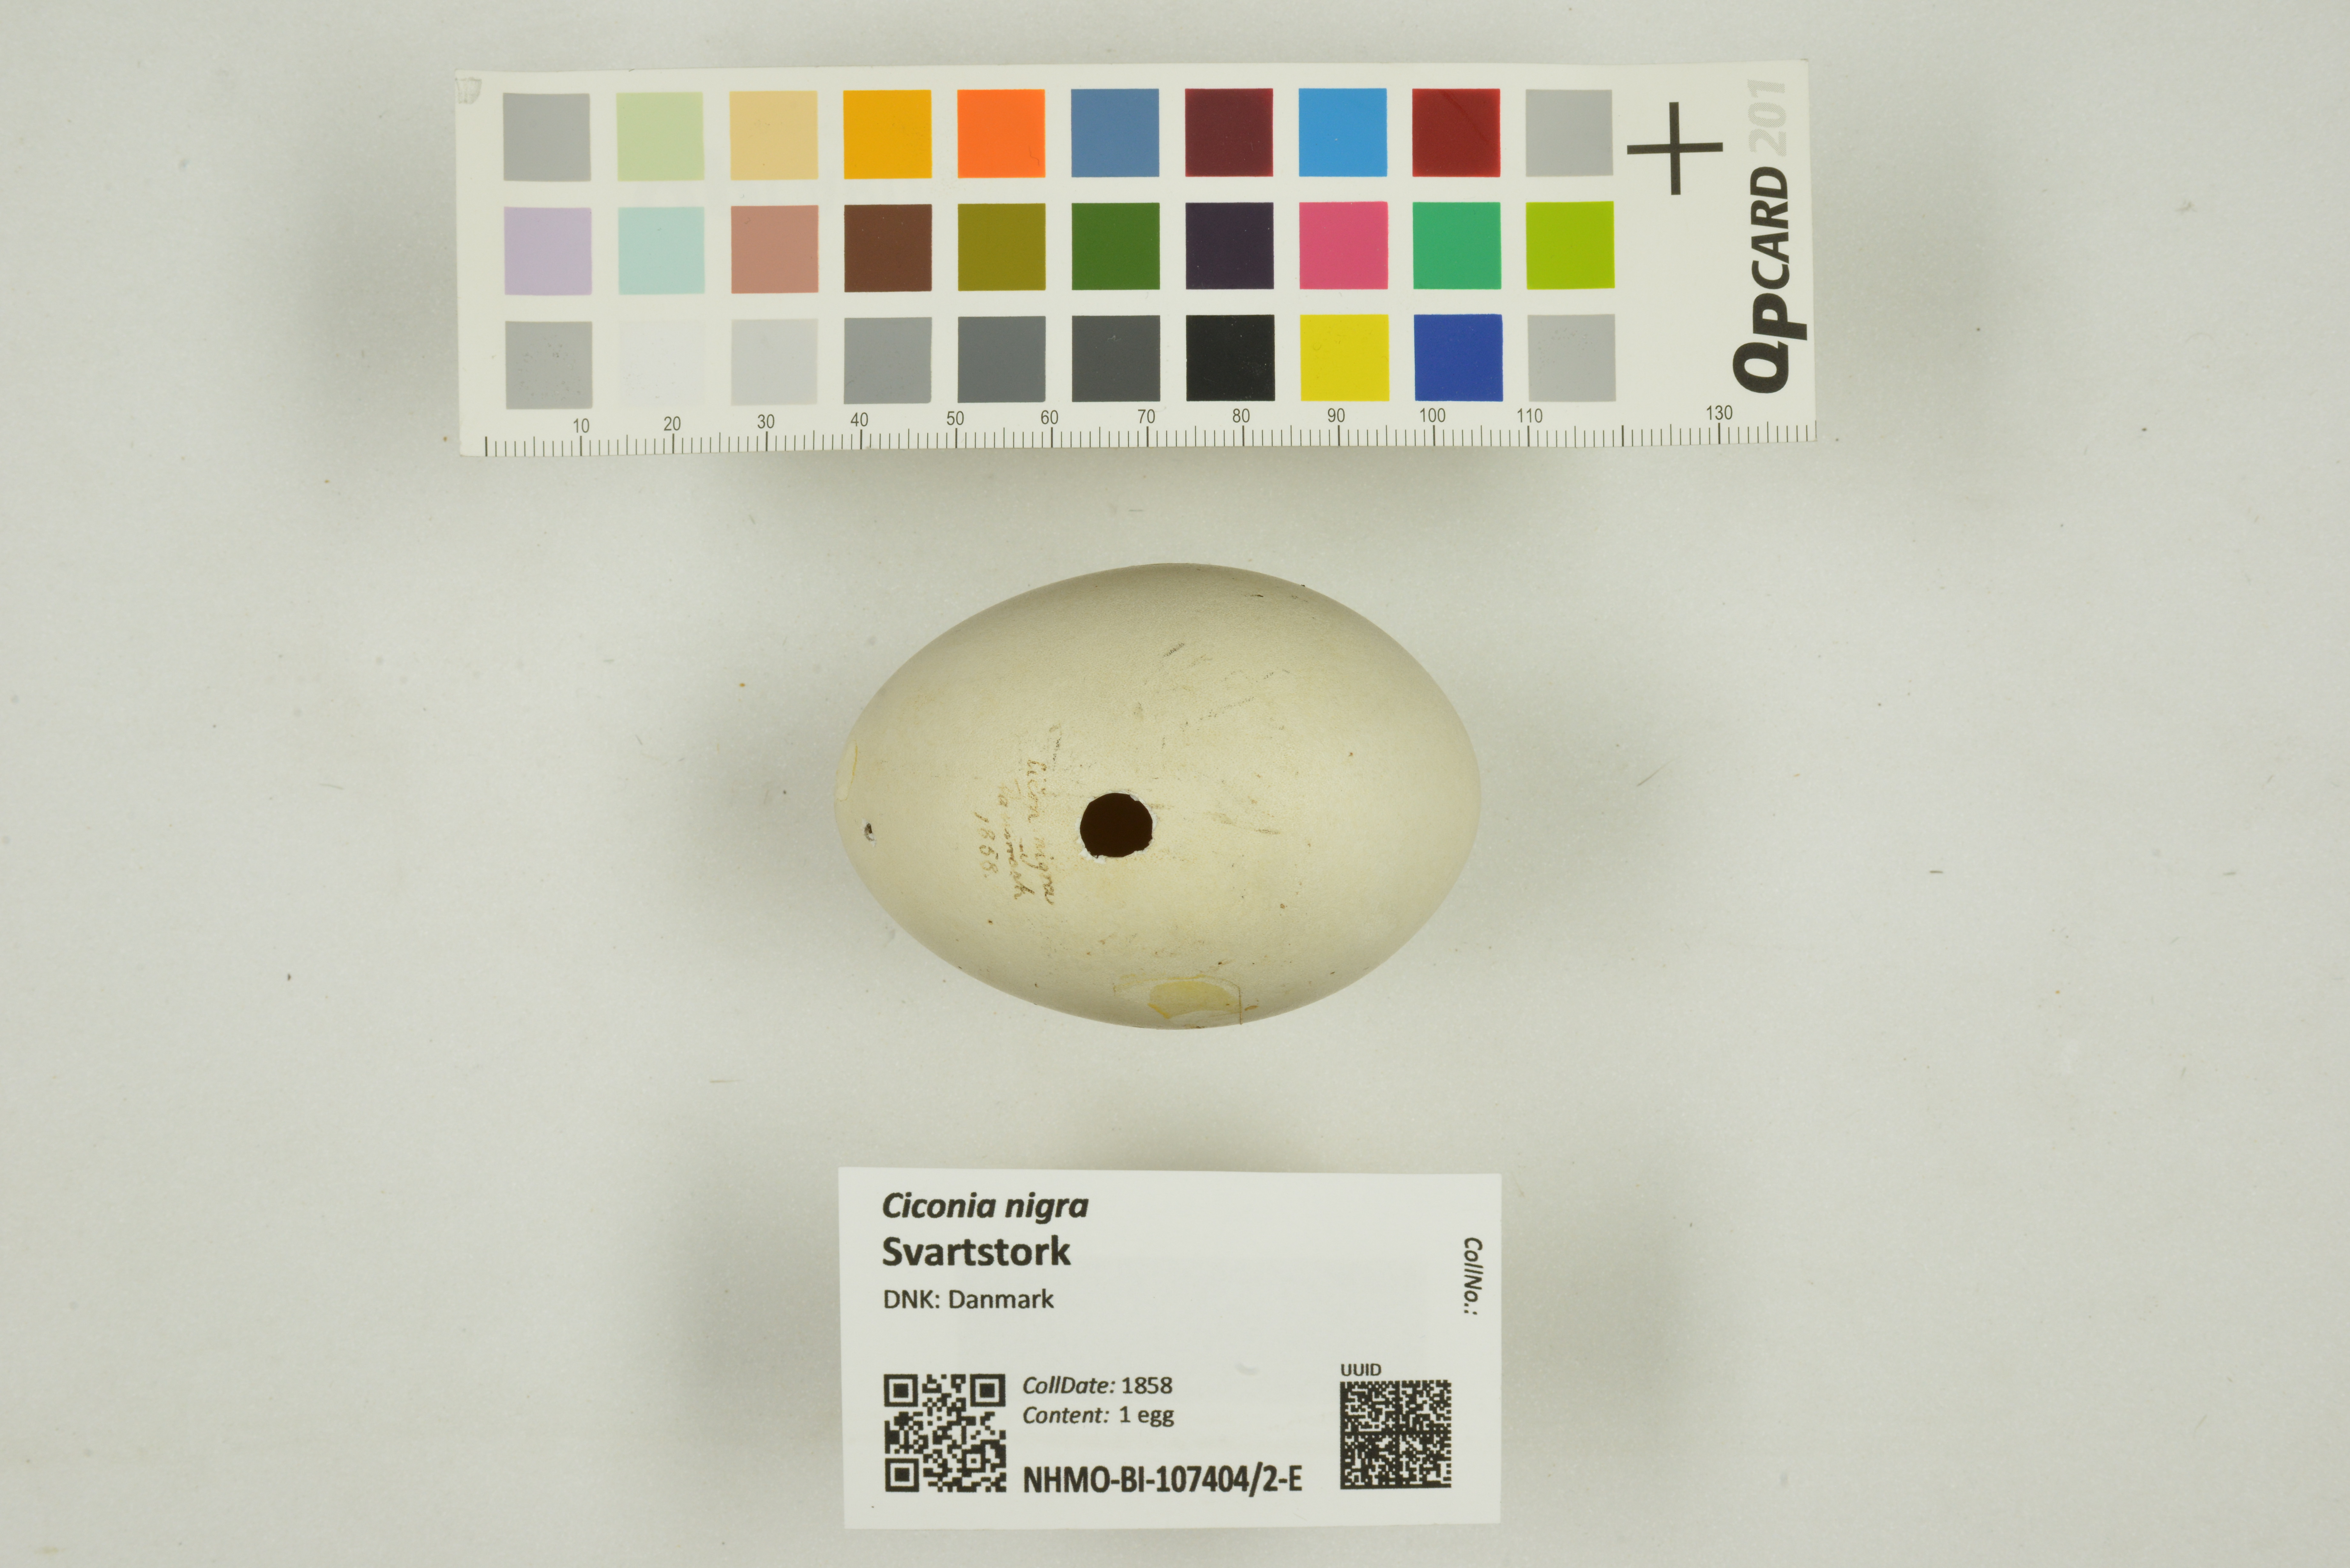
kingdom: Animalia
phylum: Chordata
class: Aves
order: Ciconiiformes
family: Ciconiidae
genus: Ciconia
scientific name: Ciconia nigra
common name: Black stork
